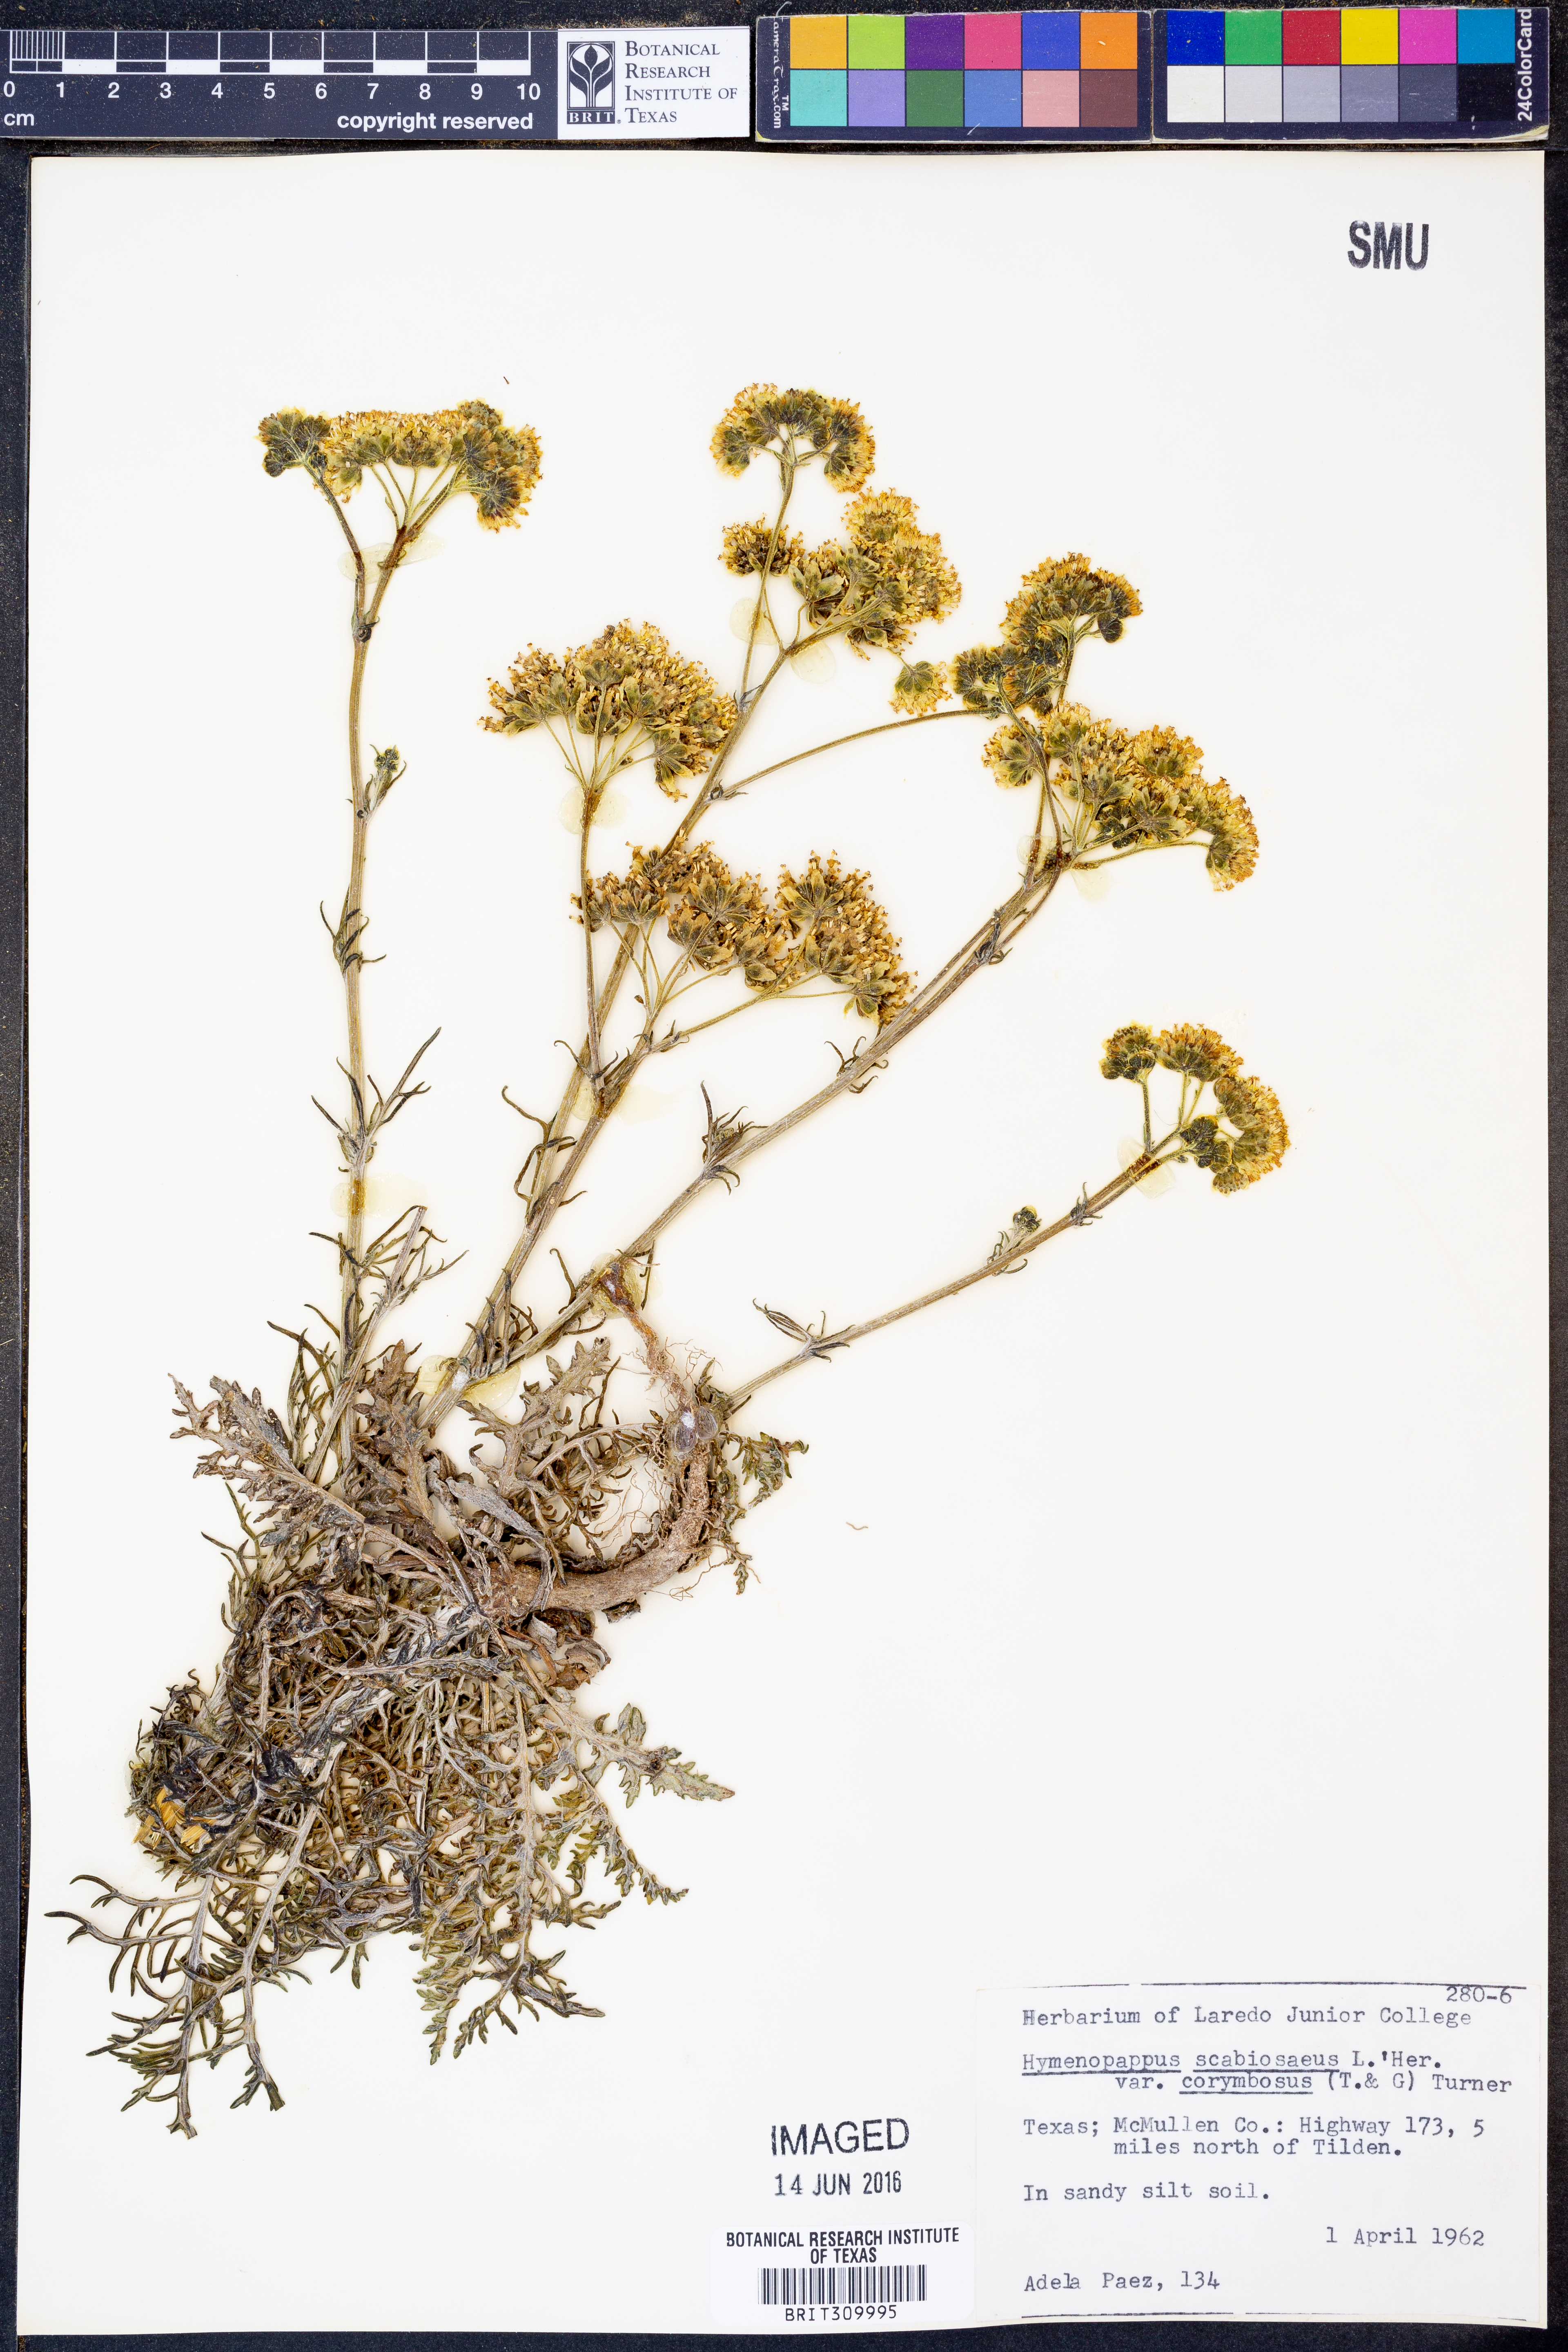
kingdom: Plantae
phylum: Tracheophyta
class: Magnoliopsida
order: Asterales
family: Asteraceae
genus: Hymenopappus
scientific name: Hymenopappus scabiosaeus
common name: Carolina woollywhite
